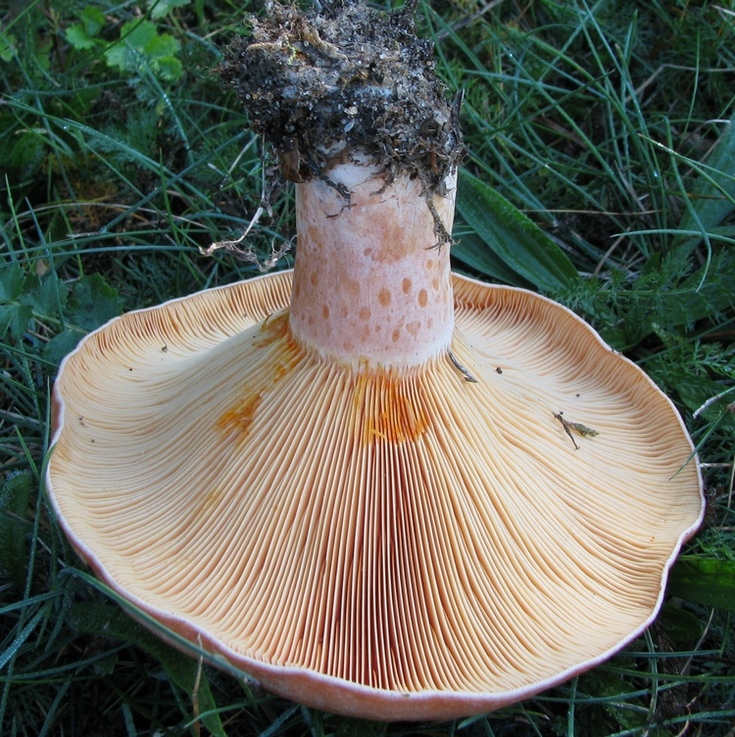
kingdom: Fungi
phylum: Basidiomycota
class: Agaricomycetes
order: Russulales
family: Russulaceae
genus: Lactarius
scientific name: Lactarius deliciosus
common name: velsmagende mælkehat
